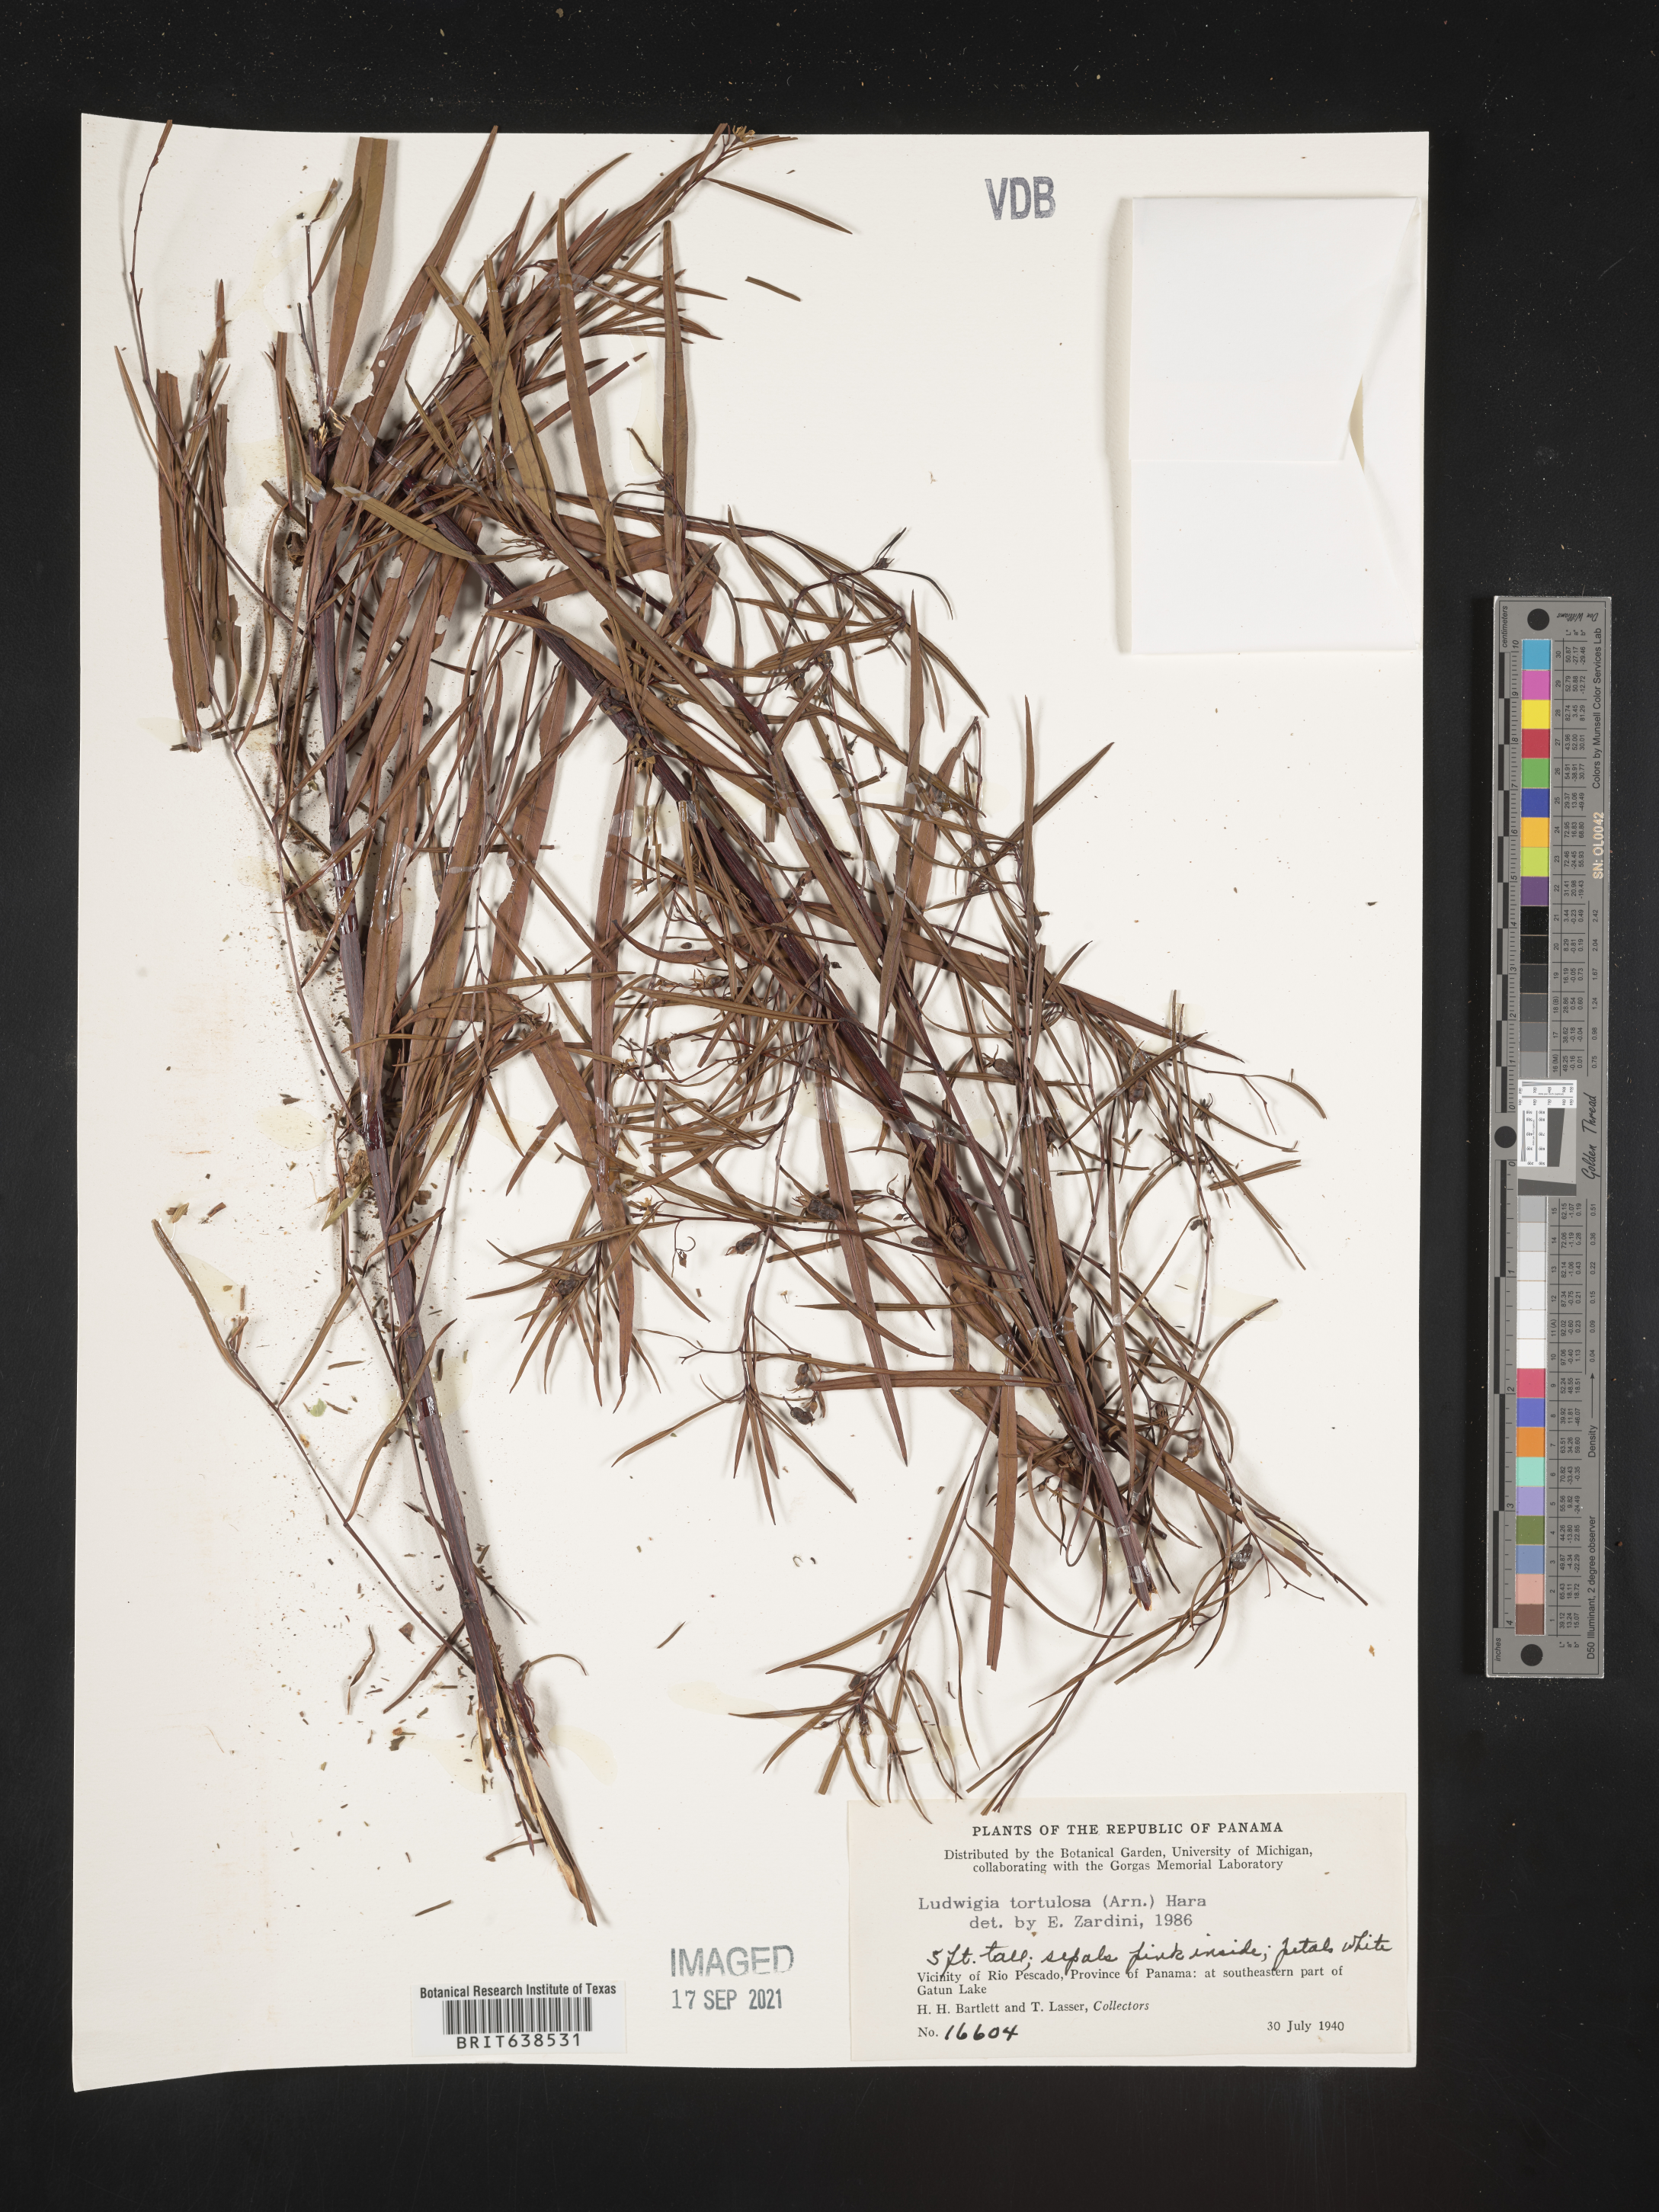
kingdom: Plantae
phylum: Tracheophyta
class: Magnoliopsida
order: Myrtales
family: Onagraceae
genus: Ludwigia
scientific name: Ludwigia
